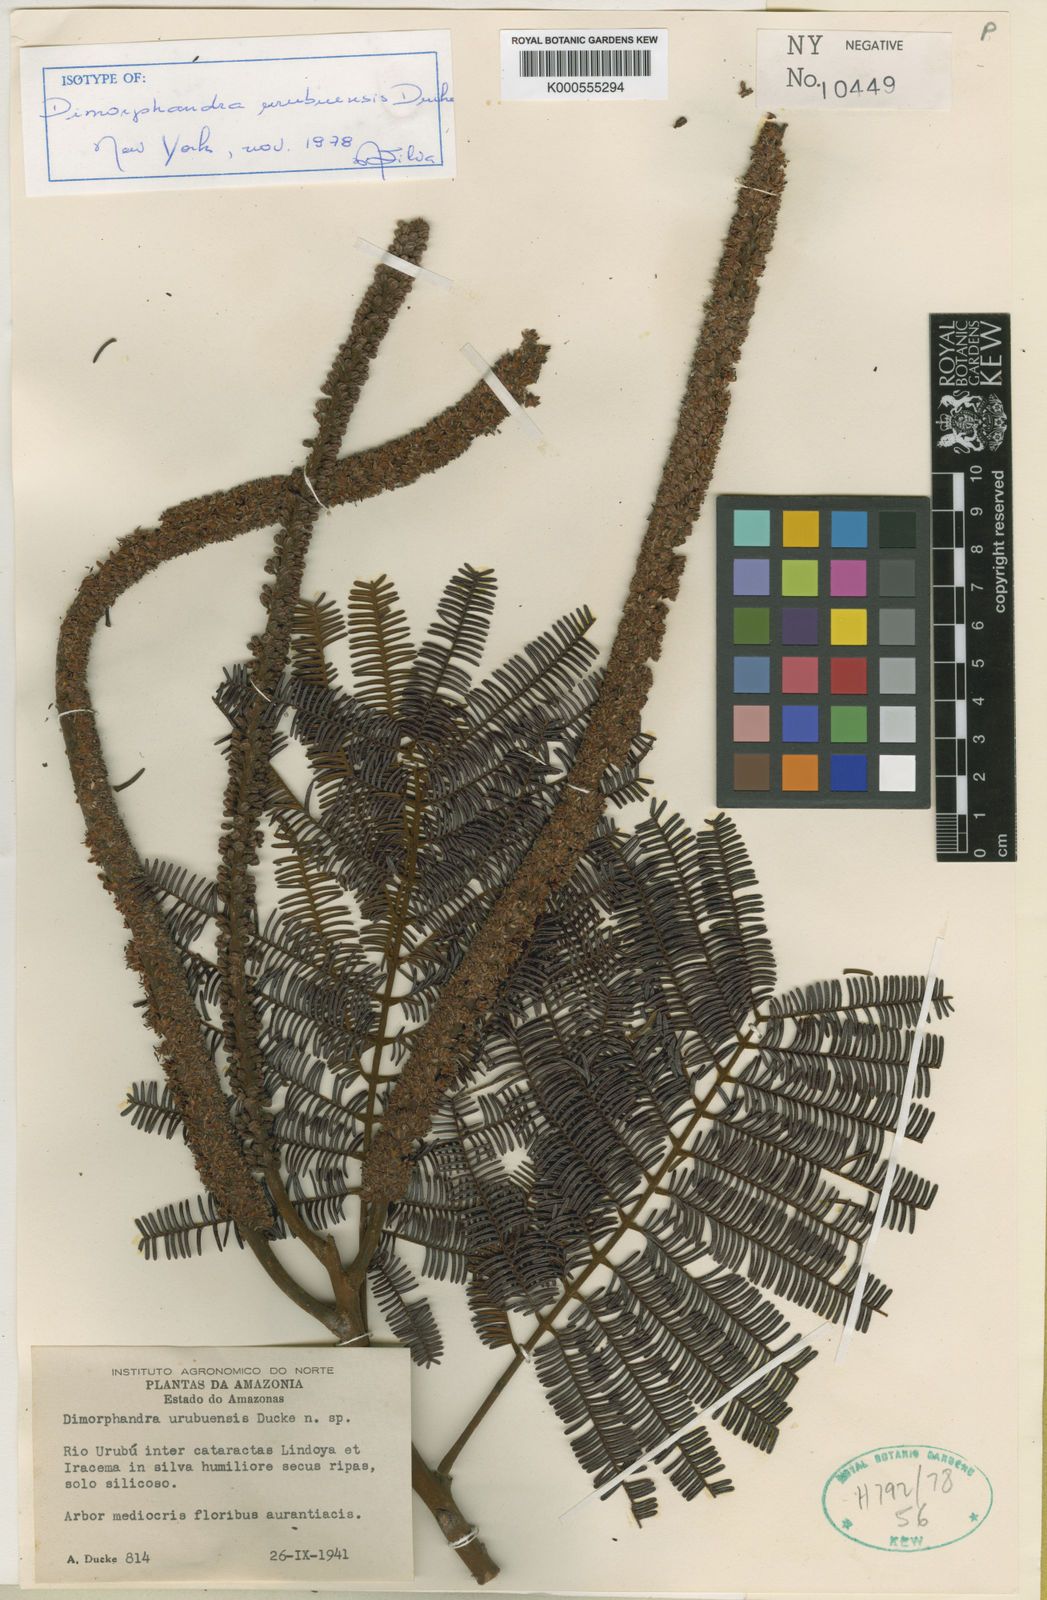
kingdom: Plantae
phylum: Tracheophyta
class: Magnoliopsida
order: Fabales
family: Fabaceae
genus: Dimorphandra
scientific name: Dimorphandra urubuensis
